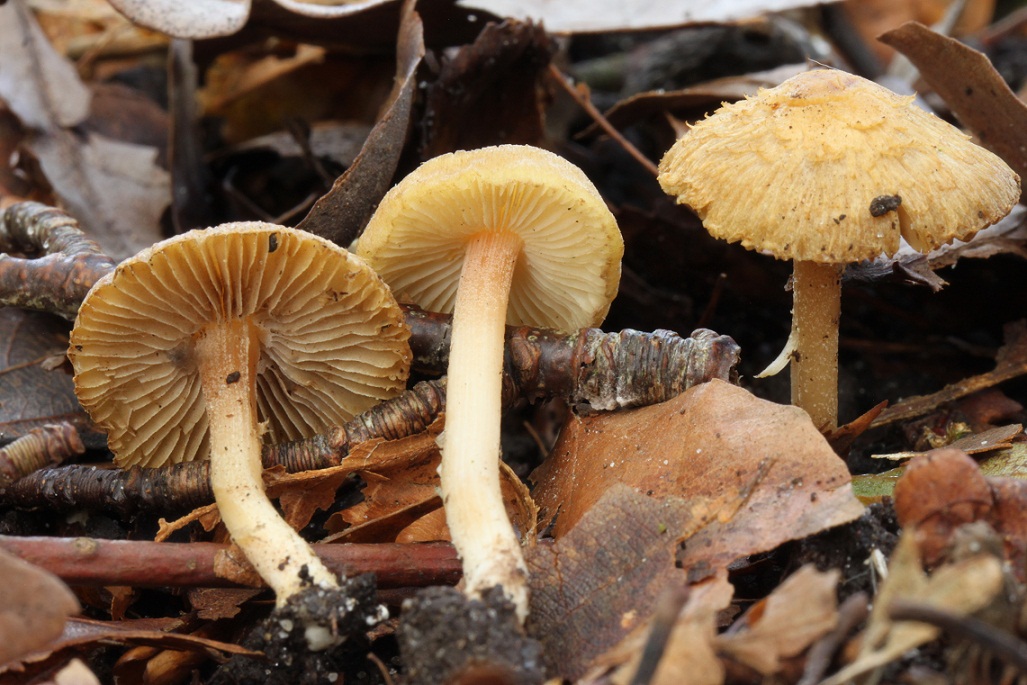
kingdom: Fungi
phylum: Basidiomycota
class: Agaricomycetes
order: Agaricales
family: Inocybaceae
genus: Inocybe
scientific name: Inocybe hirtella
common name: mandel-trævlhat
